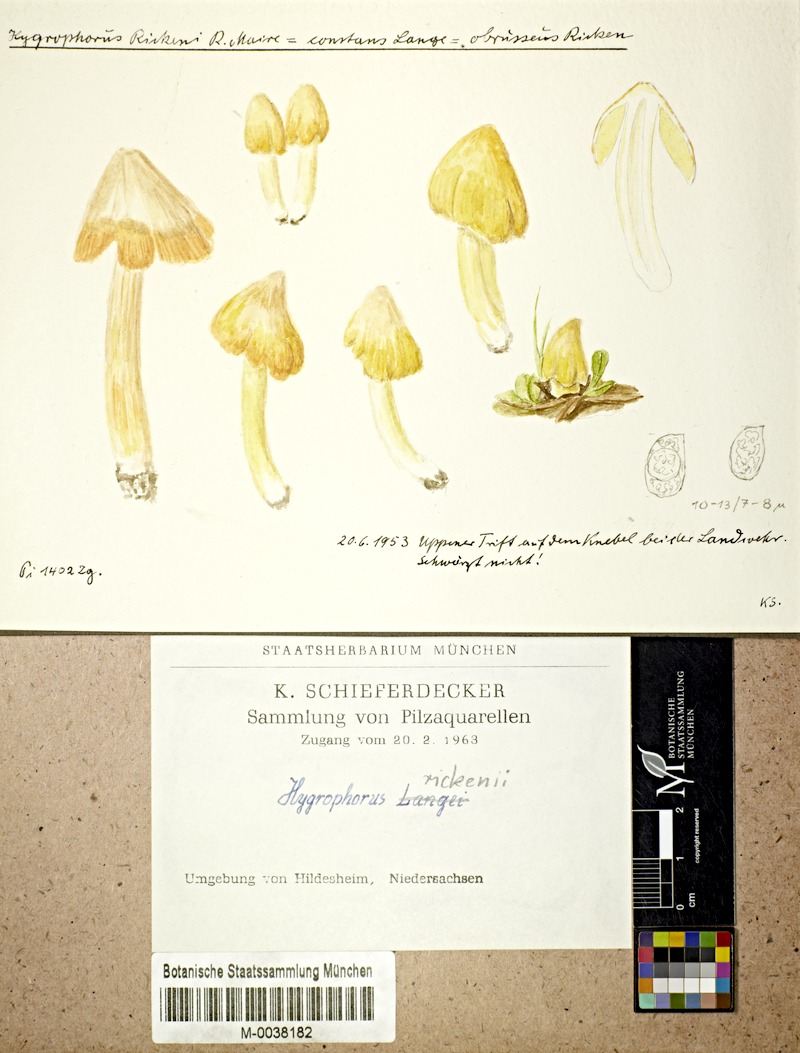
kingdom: Fungi
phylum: Basidiomycota
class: Agaricomycetes
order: Agaricales
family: Hygrophoraceae
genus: Hygrocybe
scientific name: Hygrocybe acutoconica
